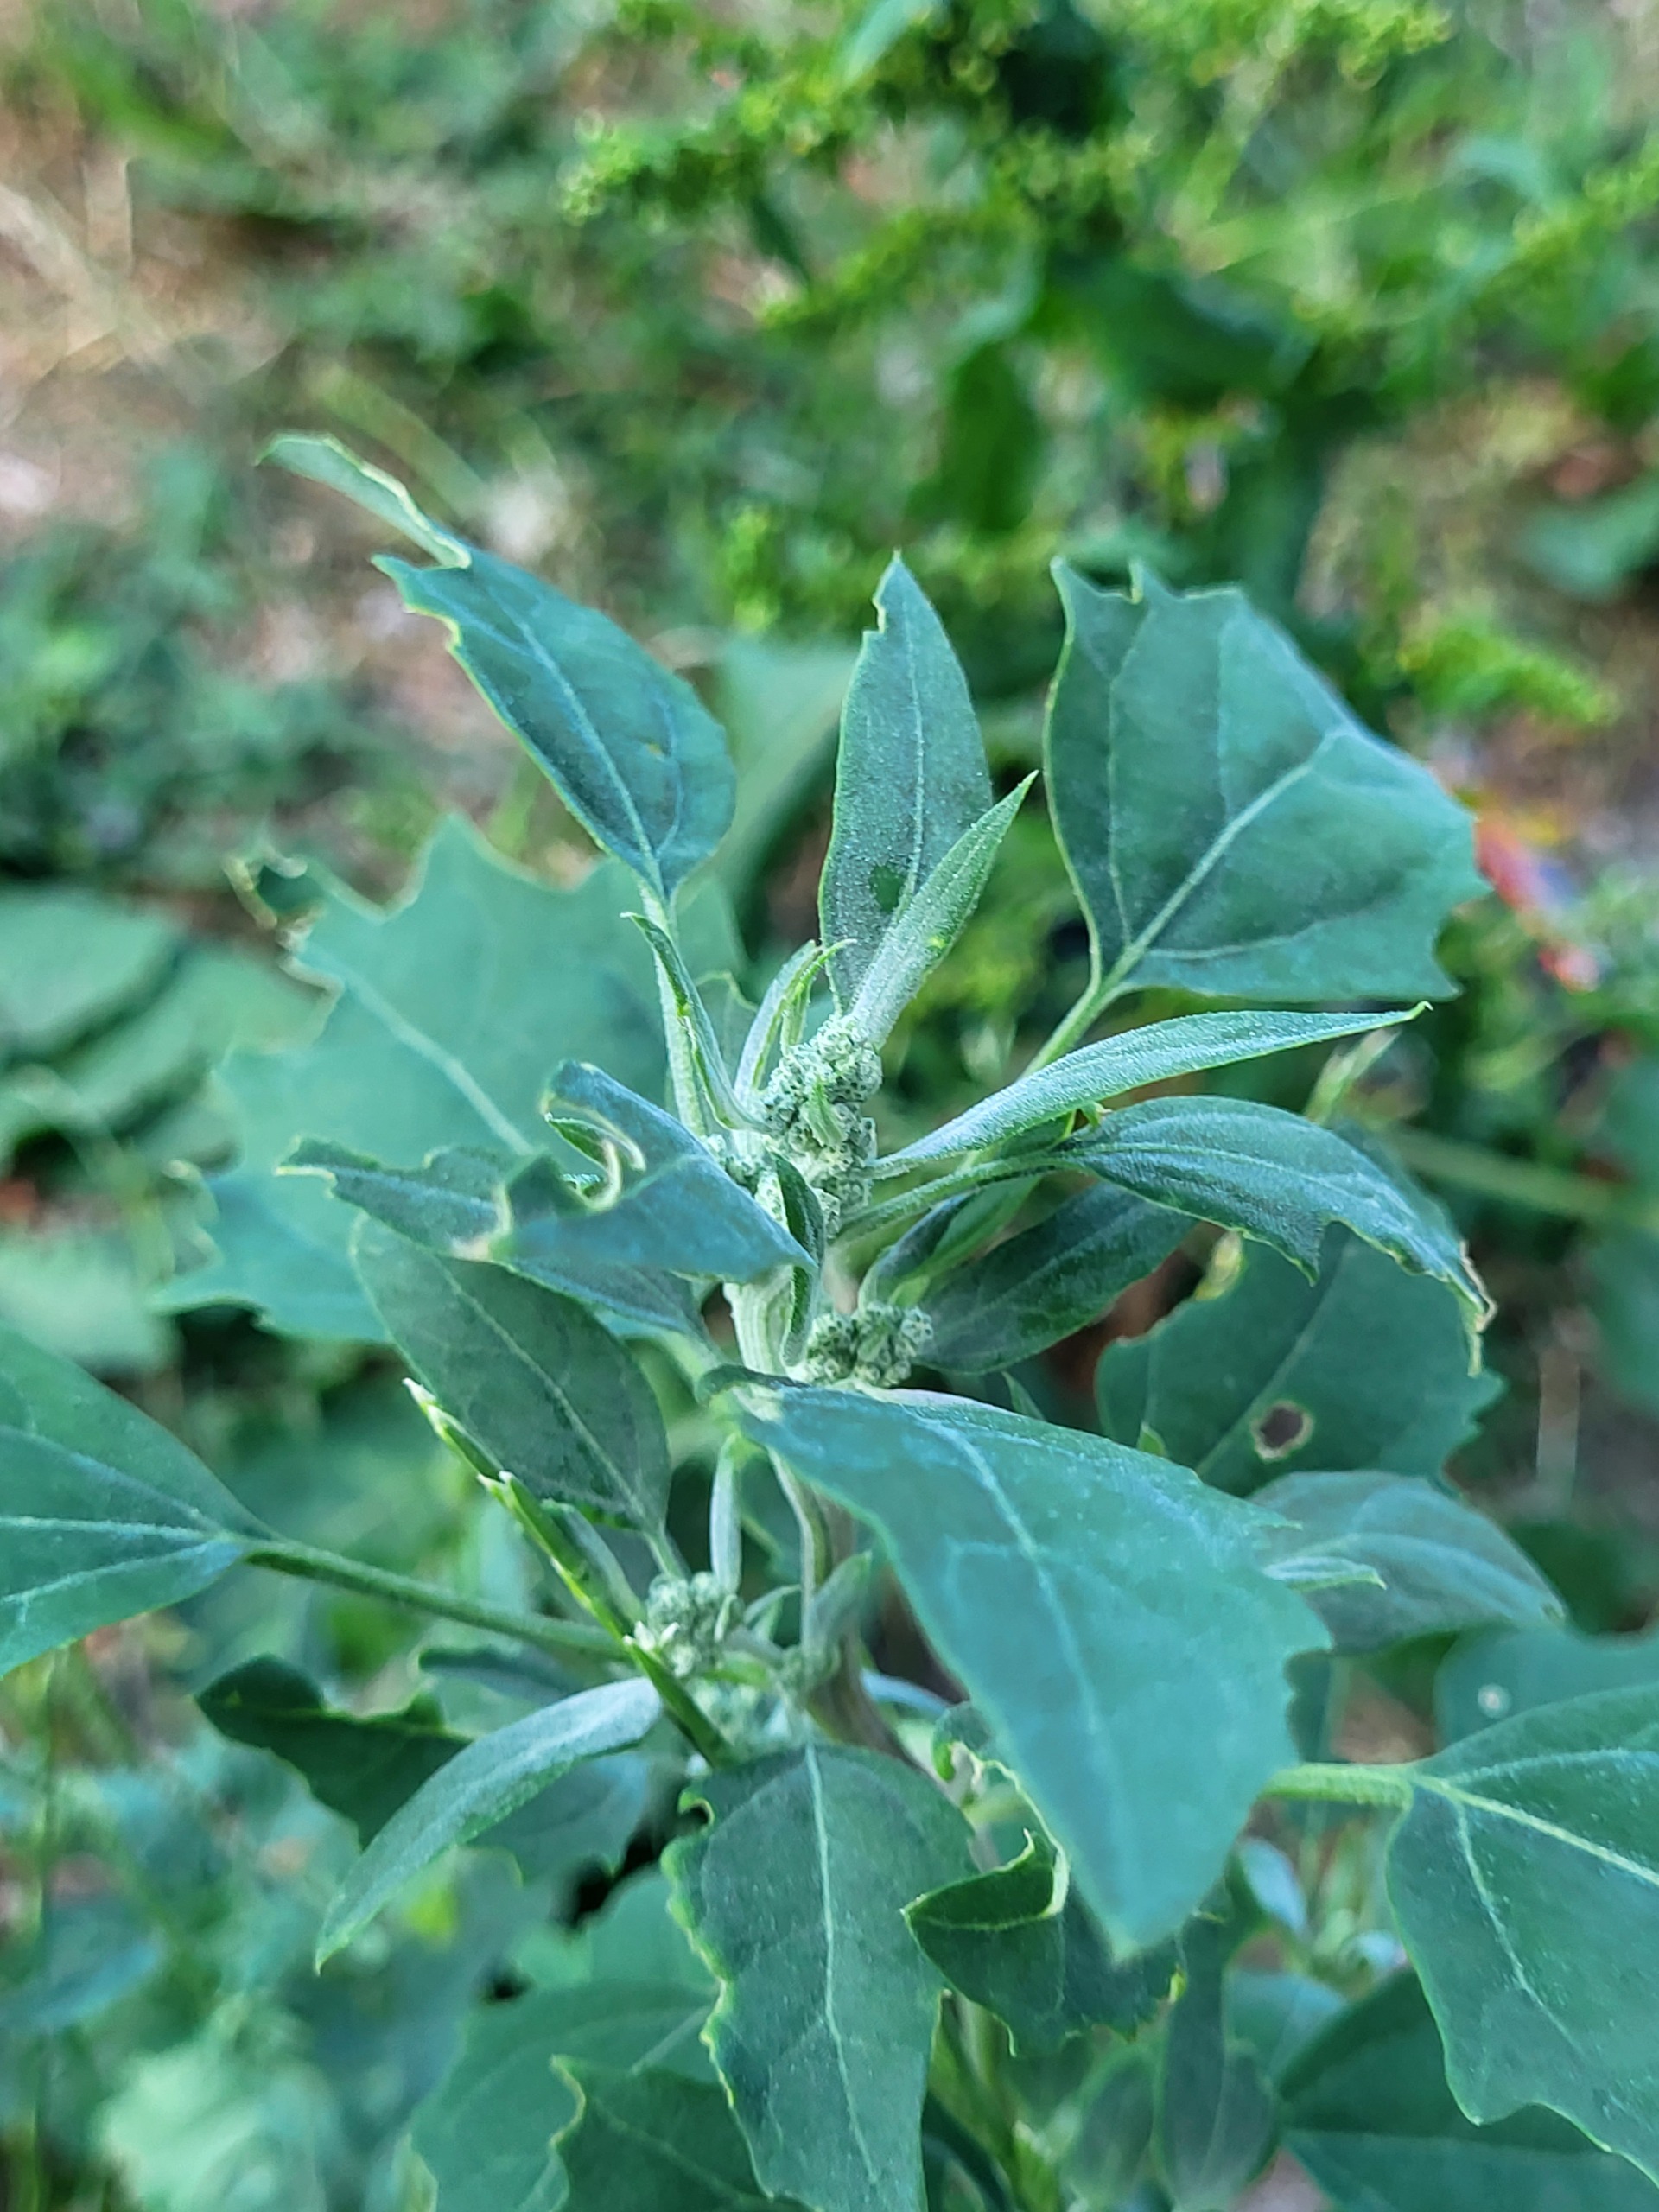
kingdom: Plantae
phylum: Tracheophyta
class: Magnoliopsida
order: Caryophyllales
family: Amaranthaceae
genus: Chenopodium
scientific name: Chenopodium album
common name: Hvidmelet gåsefod
